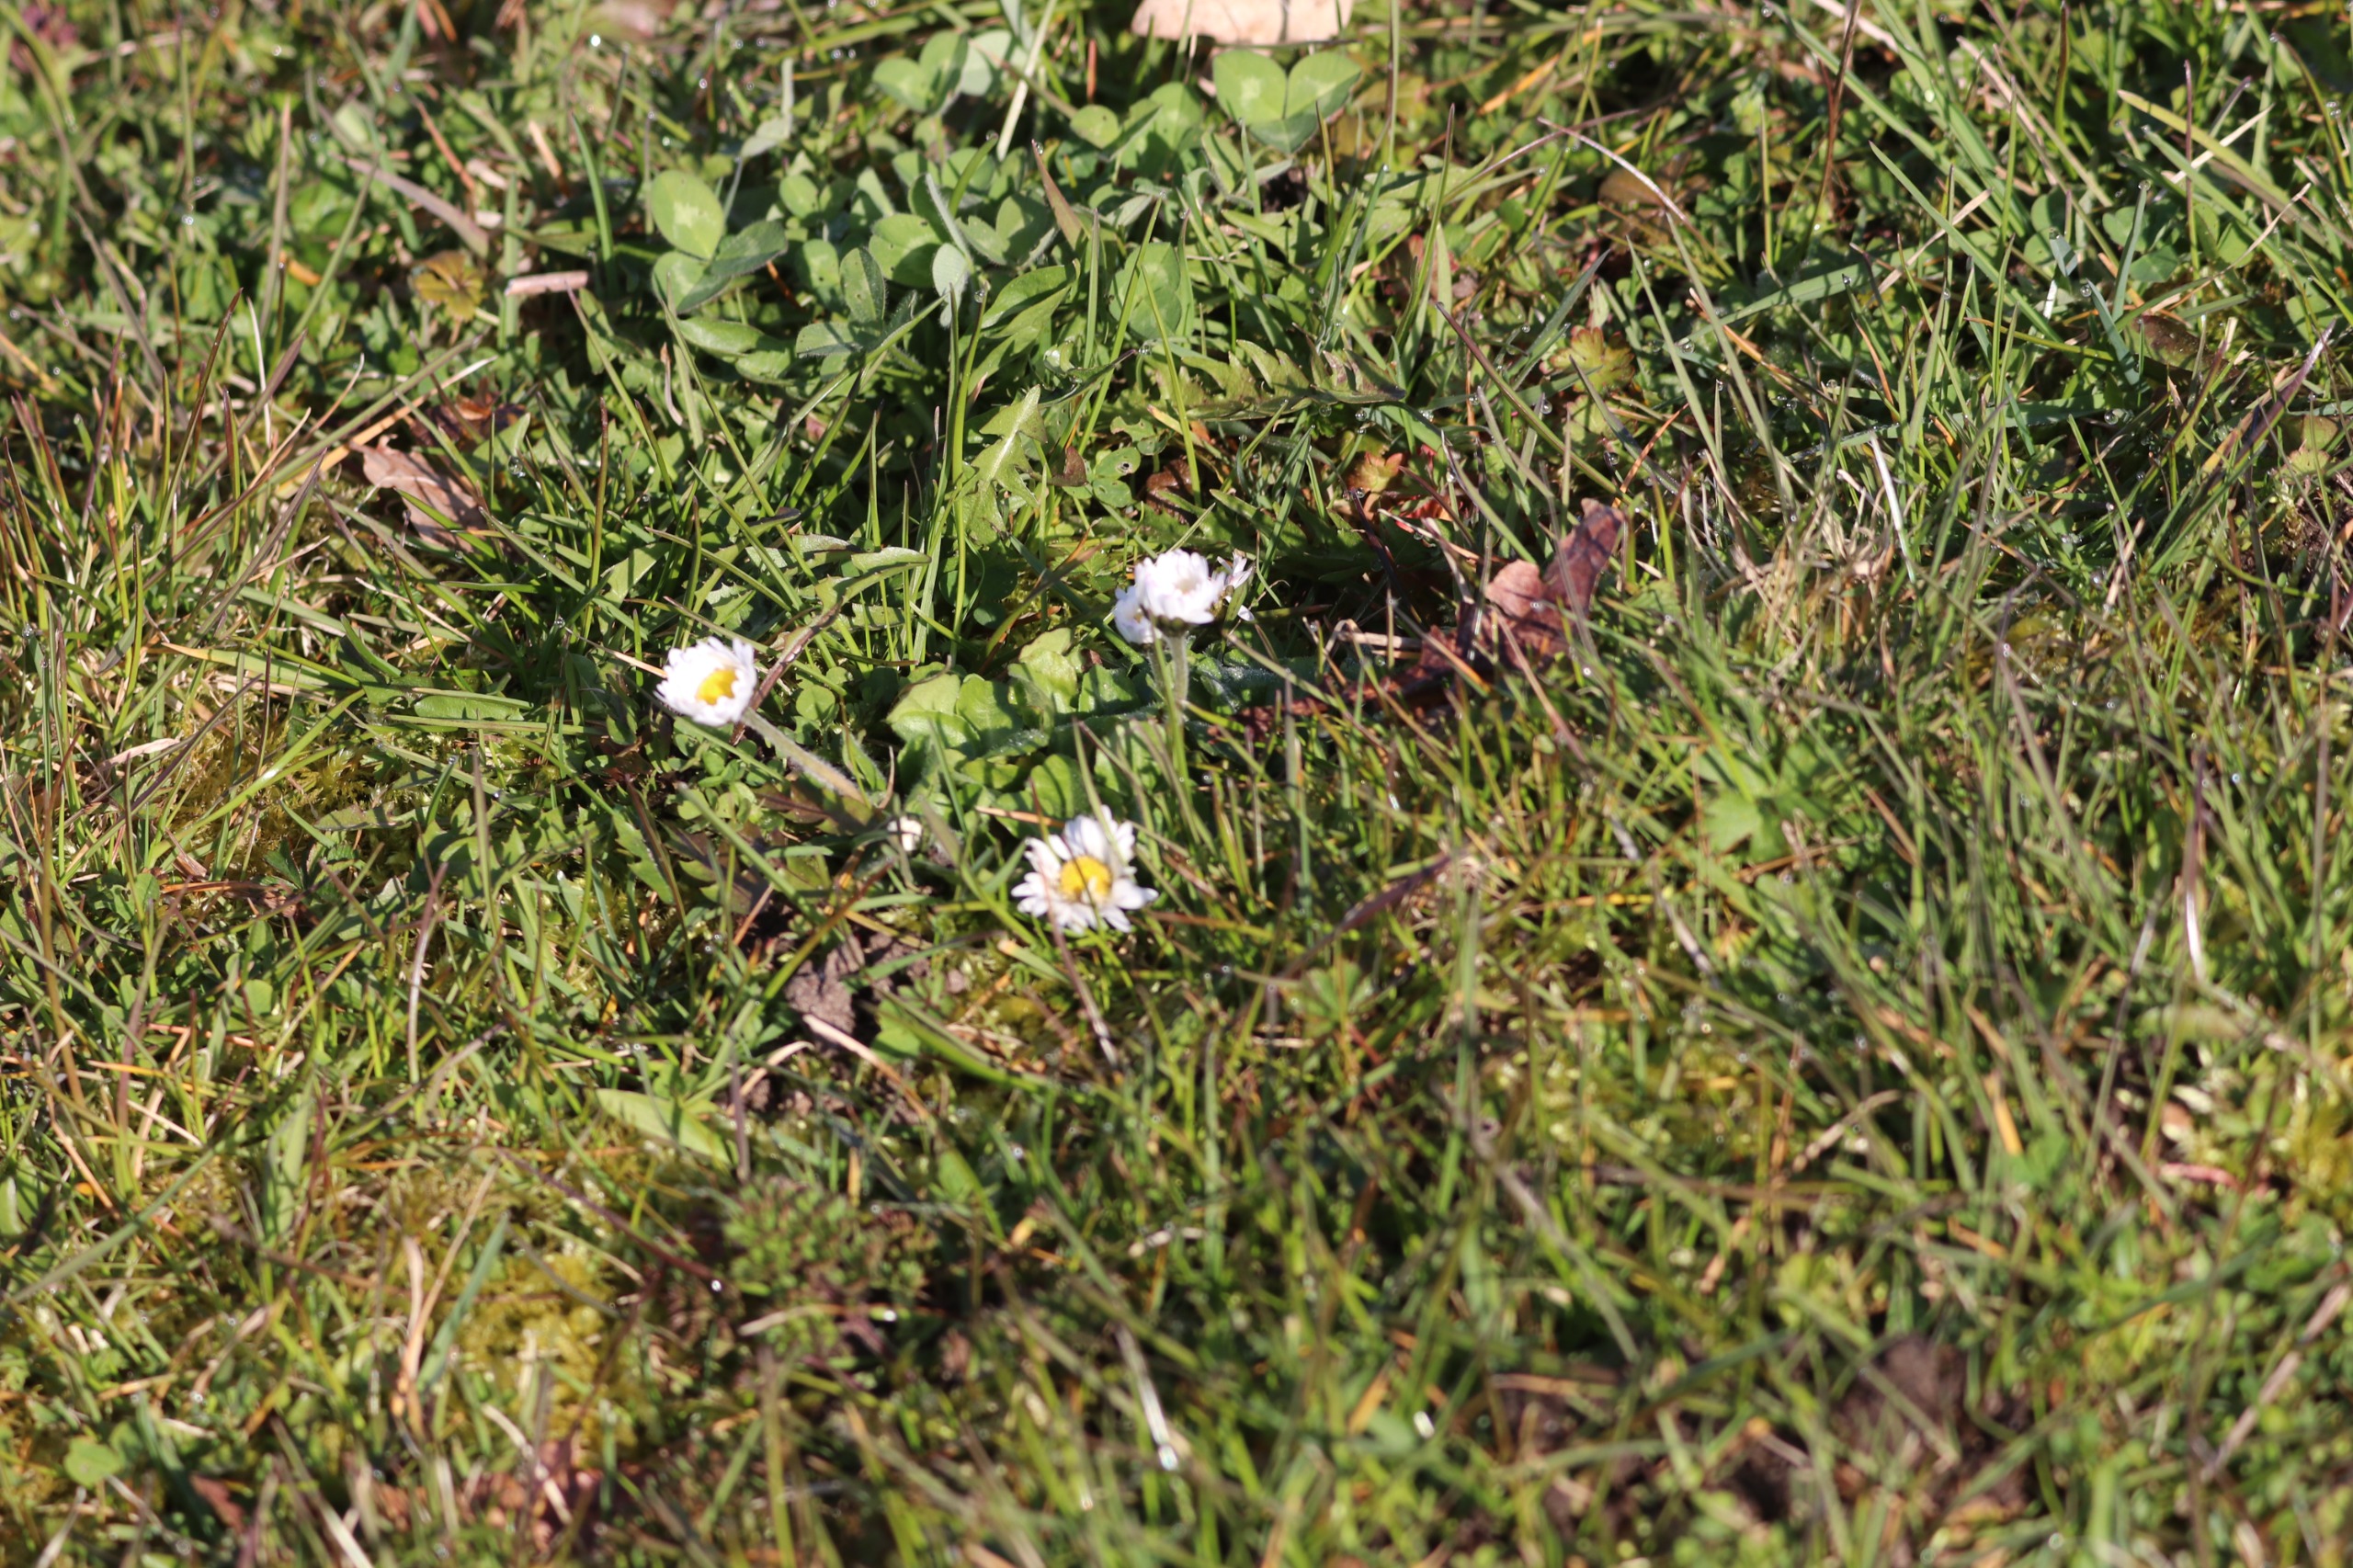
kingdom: Plantae
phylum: Tracheophyta
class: Magnoliopsida
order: Asterales
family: Asteraceae
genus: Bellis
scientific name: Bellis perennis
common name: Tusindfryd
